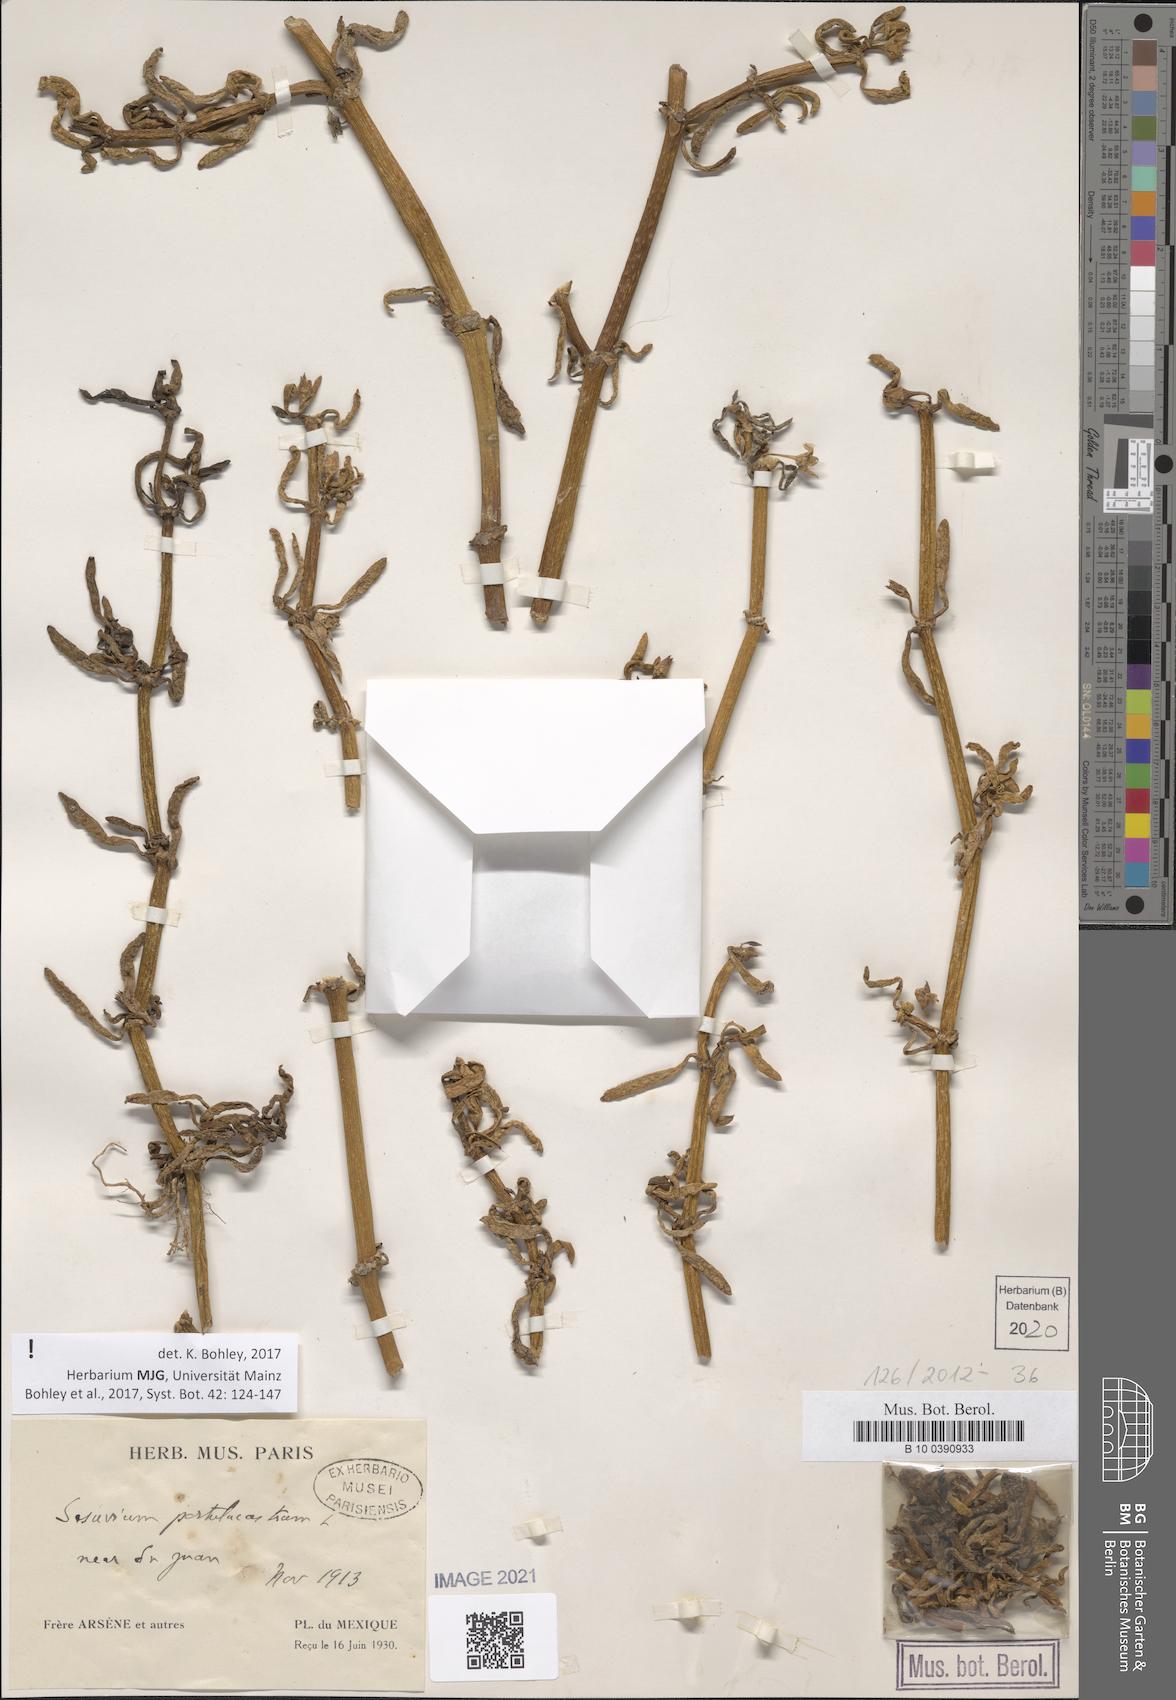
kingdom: Plantae
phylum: Tracheophyta
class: Magnoliopsida
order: Caryophyllales
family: Aizoaceae
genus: Sesuvium
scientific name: Sesuvium portulacastrum
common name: Sea-purslane
